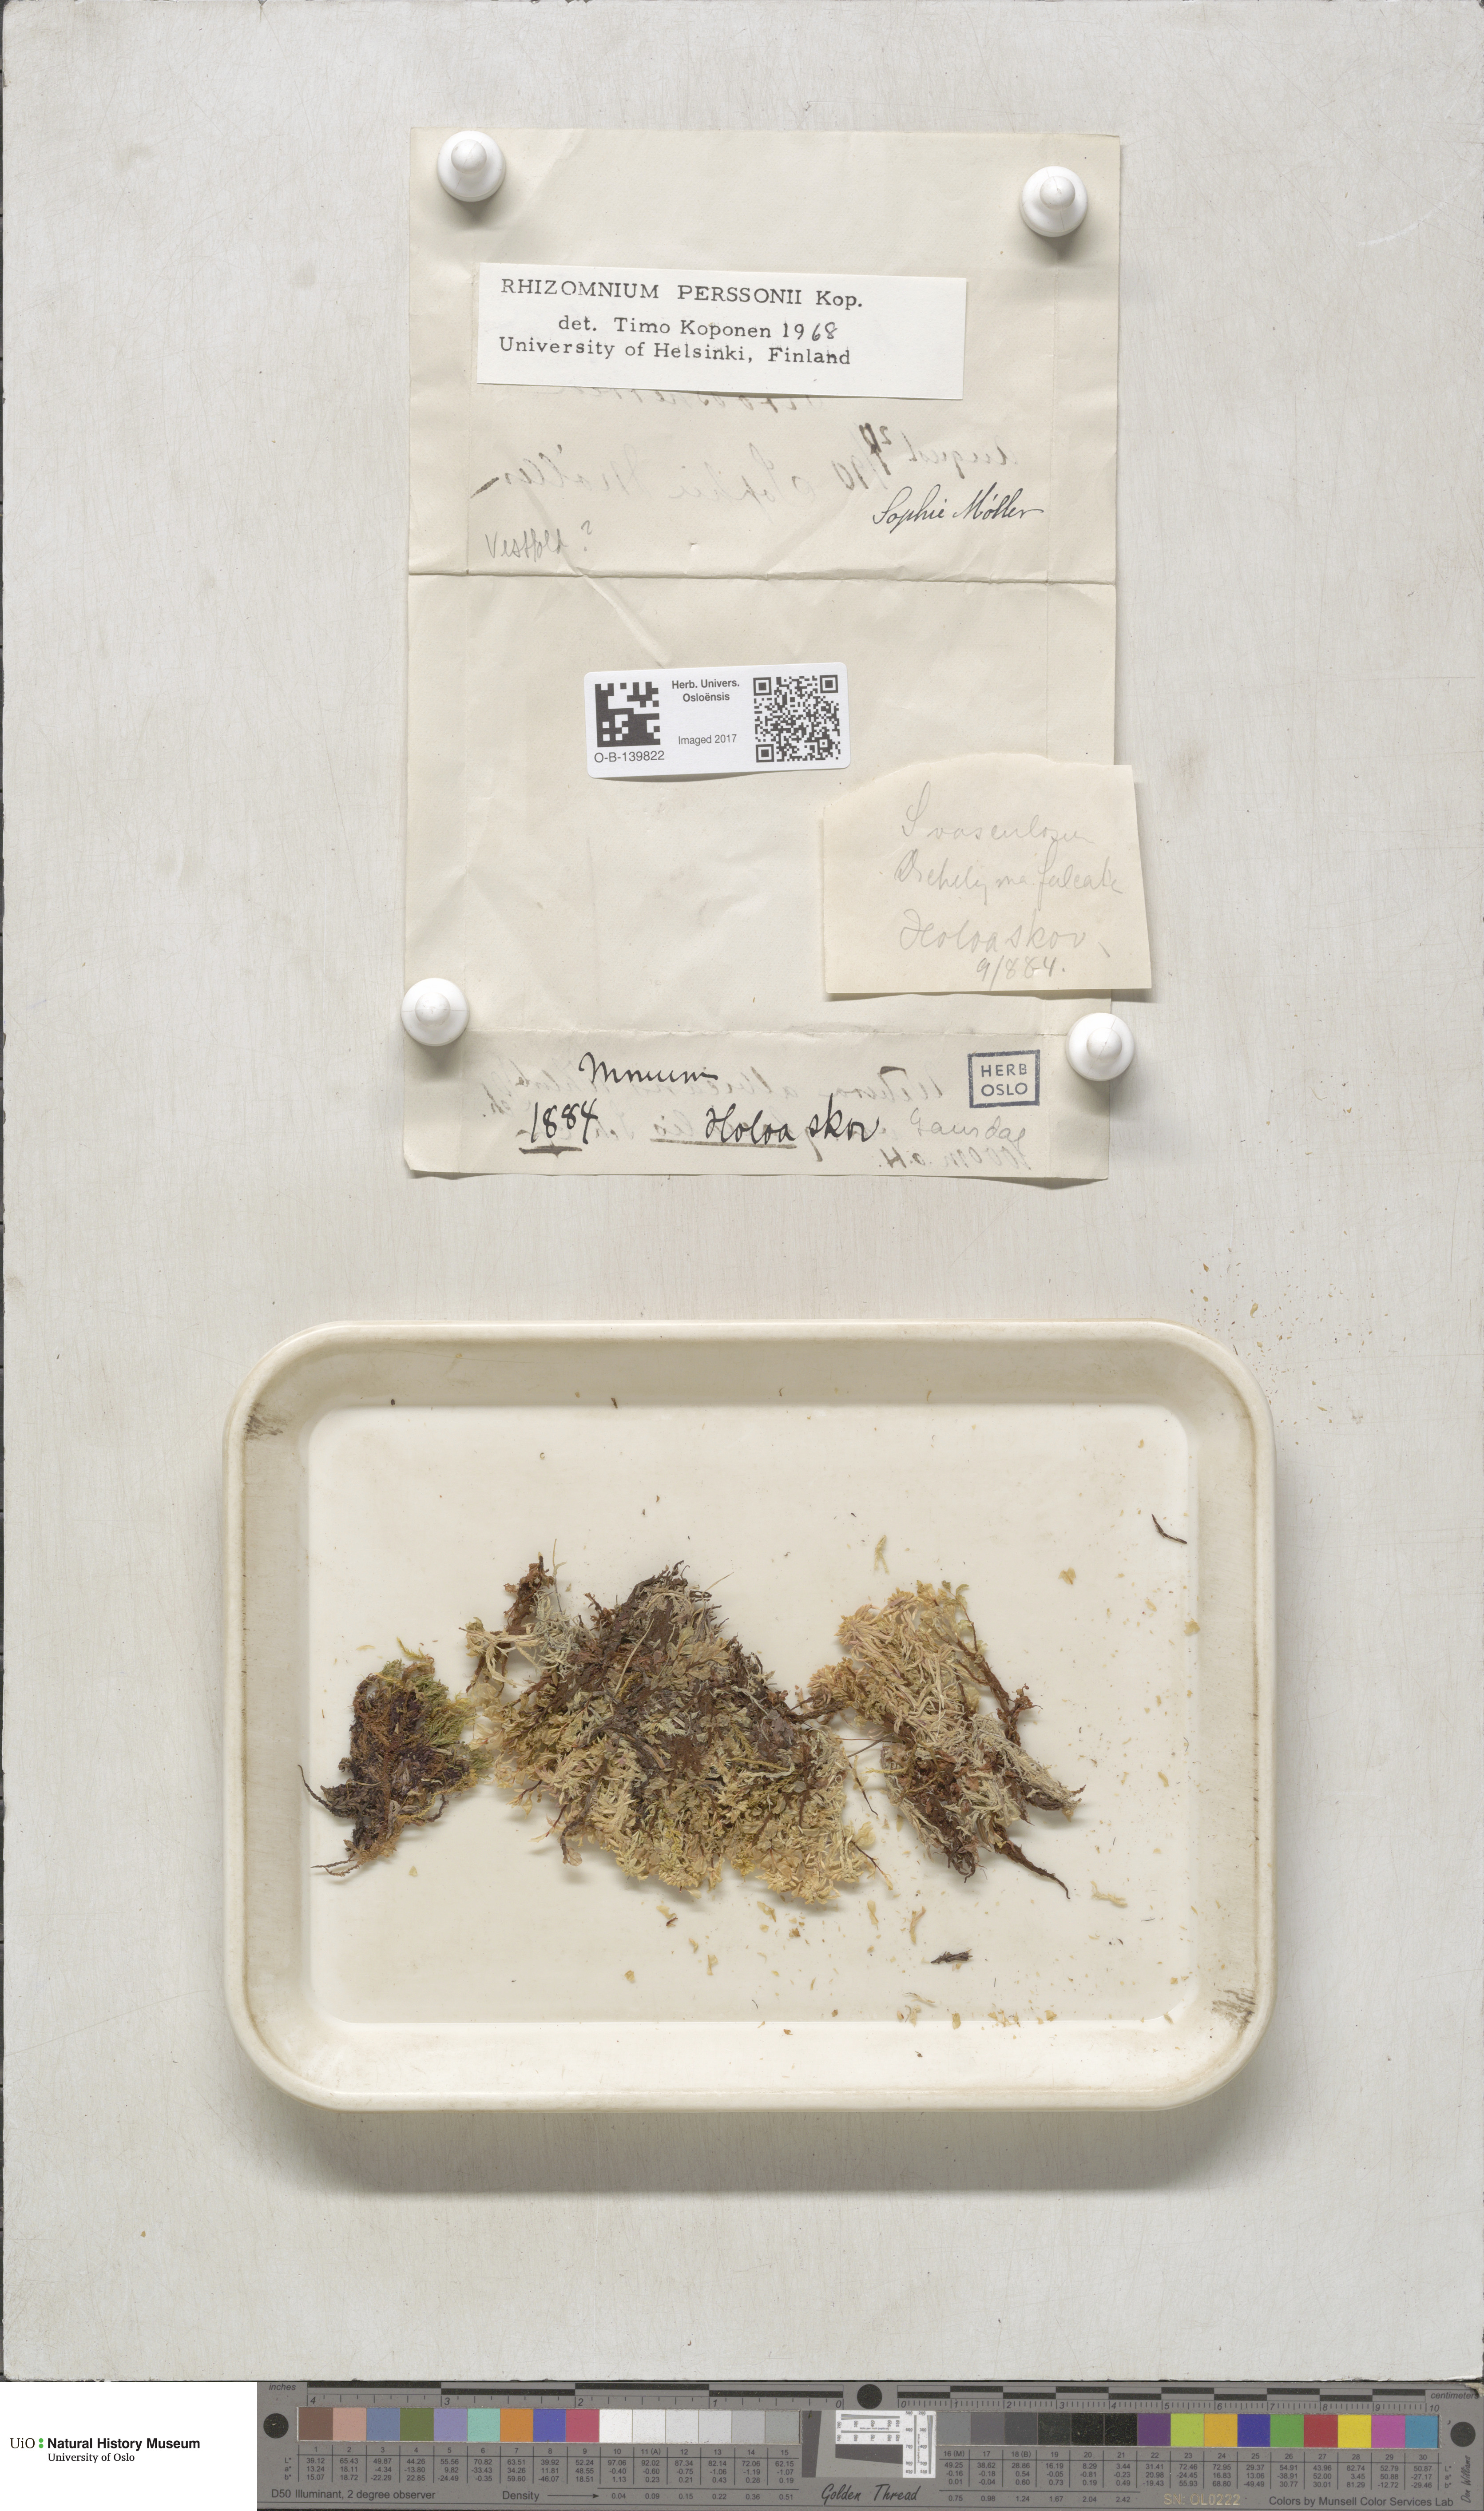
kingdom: Plantae
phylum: Bryophyta
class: Bryopsida
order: Bryales
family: Mniaceae
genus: Rhizomnium
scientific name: Rhizomnium magnifolium
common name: Large-leaved leafy moss
